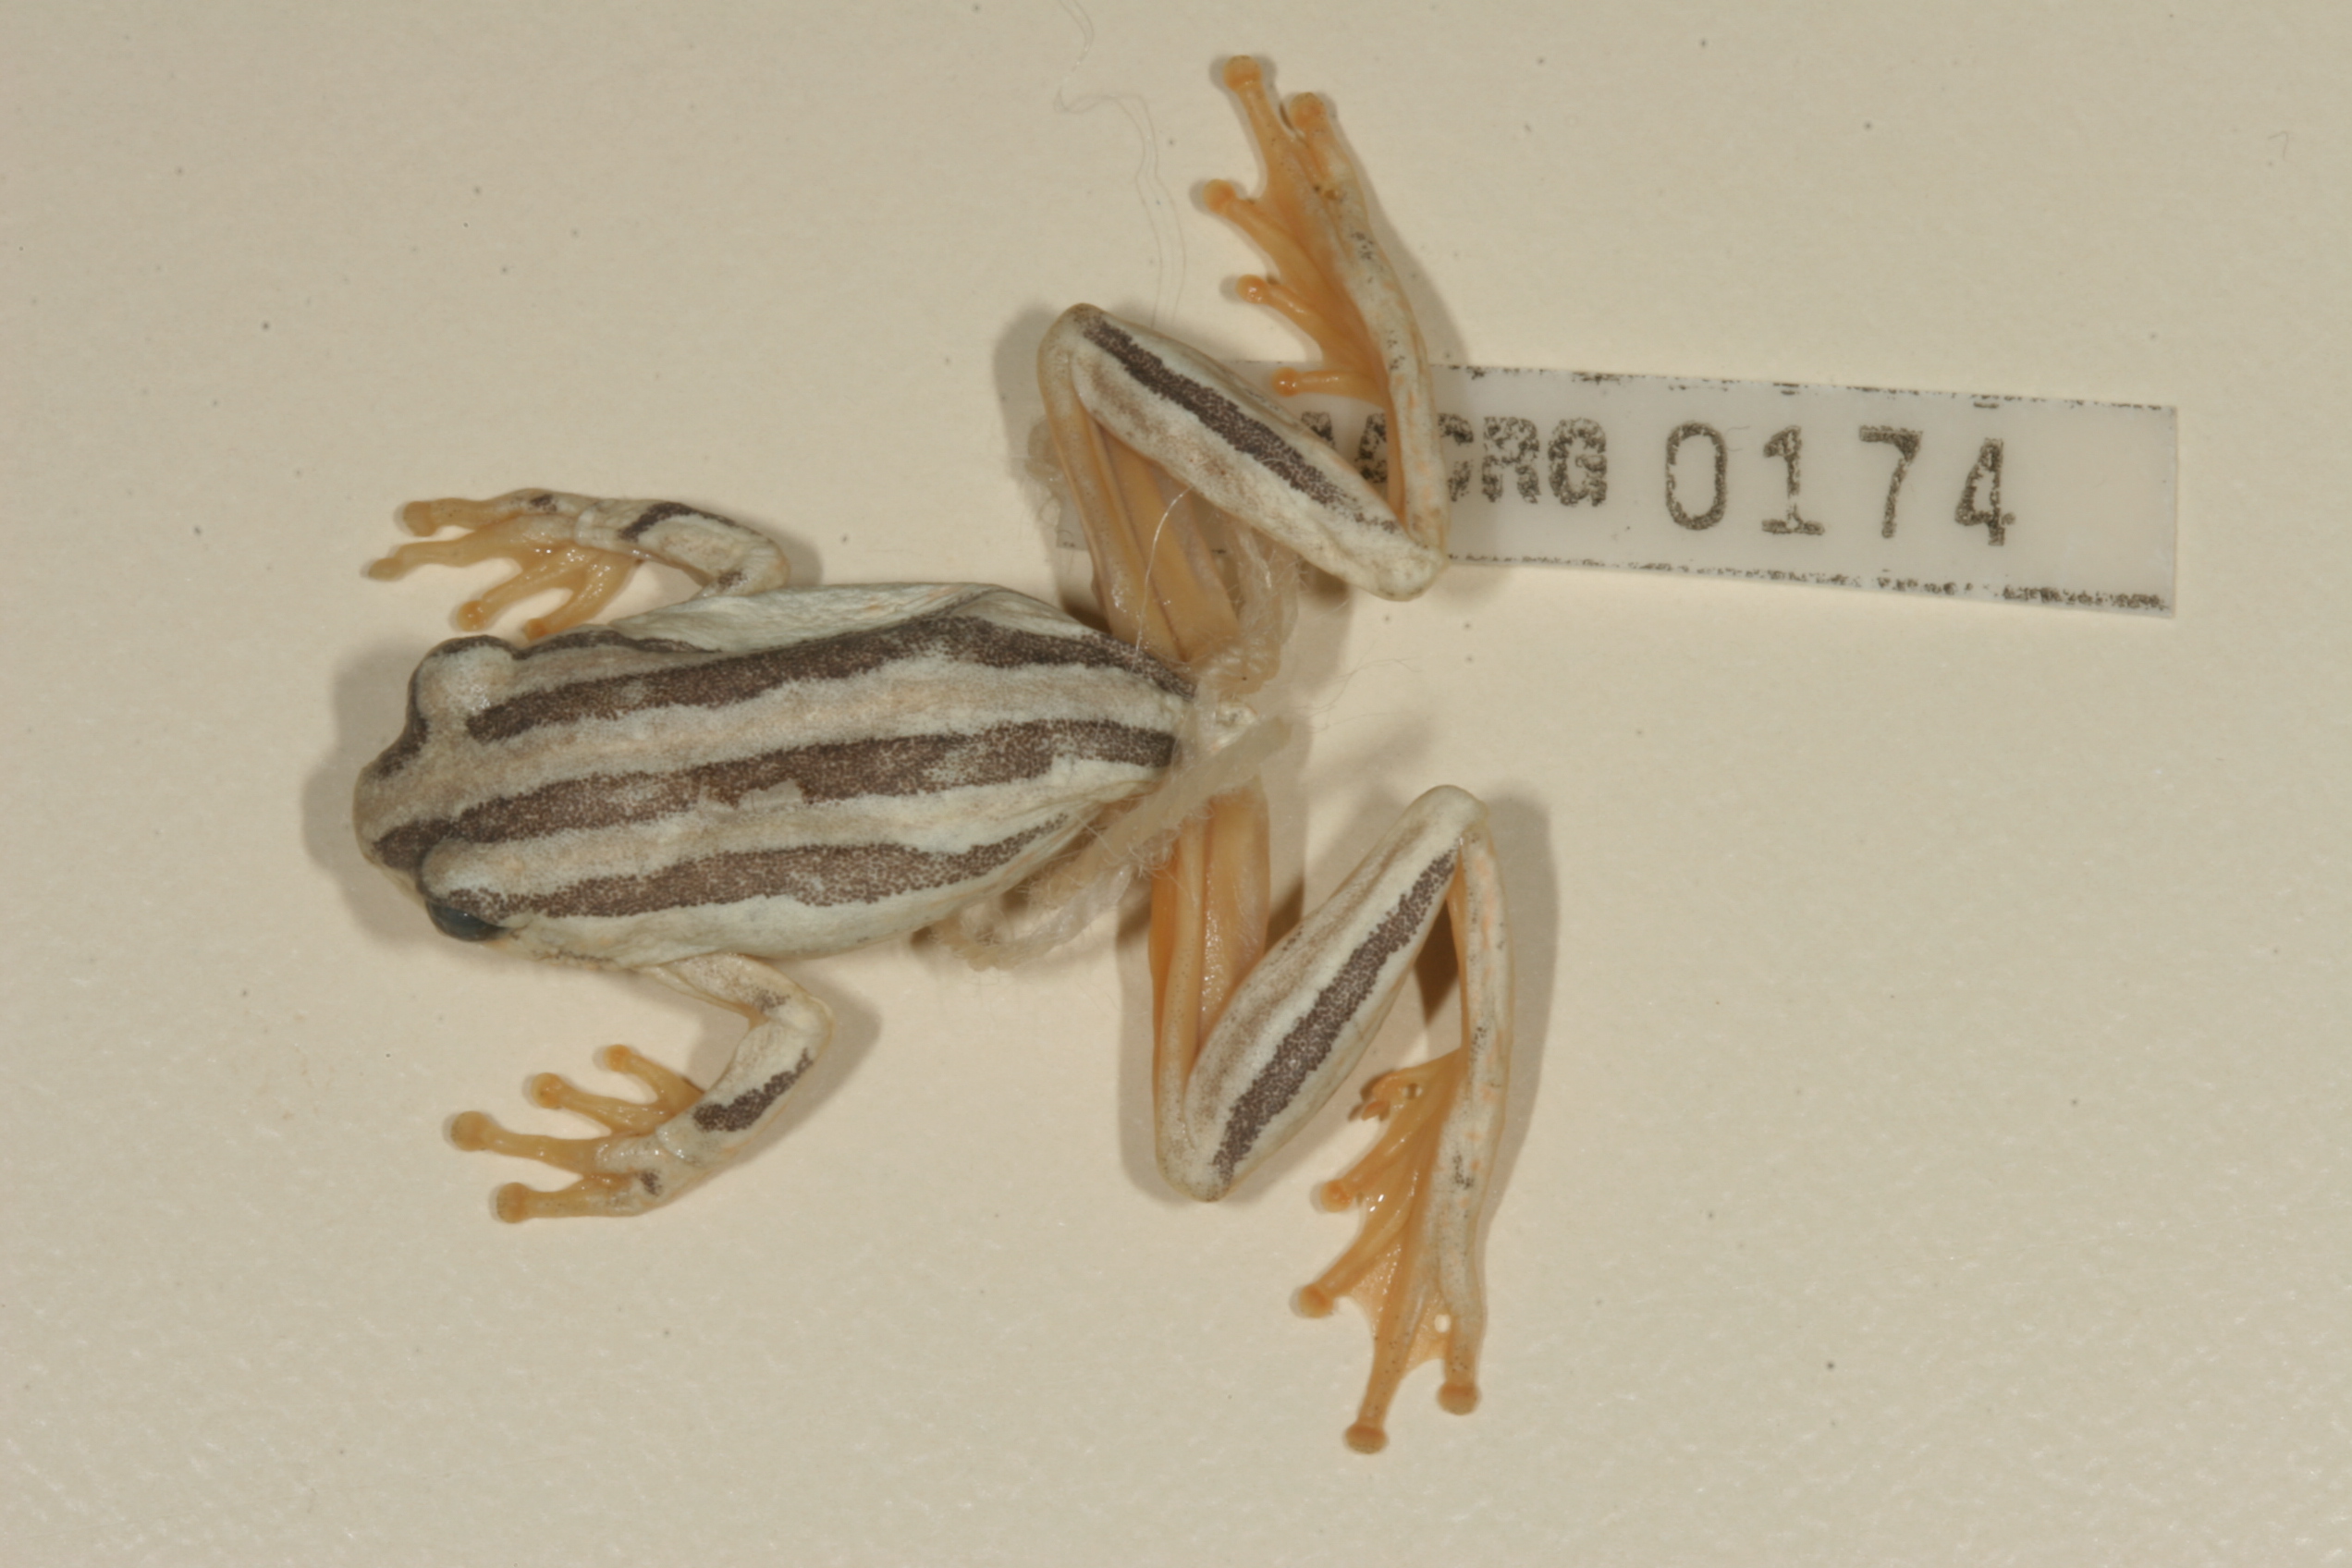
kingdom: Animalia
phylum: Chordata
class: Amphibia
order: Anura
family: Rhacophoridae
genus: Chiromantis
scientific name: Chiromantis xerampelina
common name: African gray treefrog
